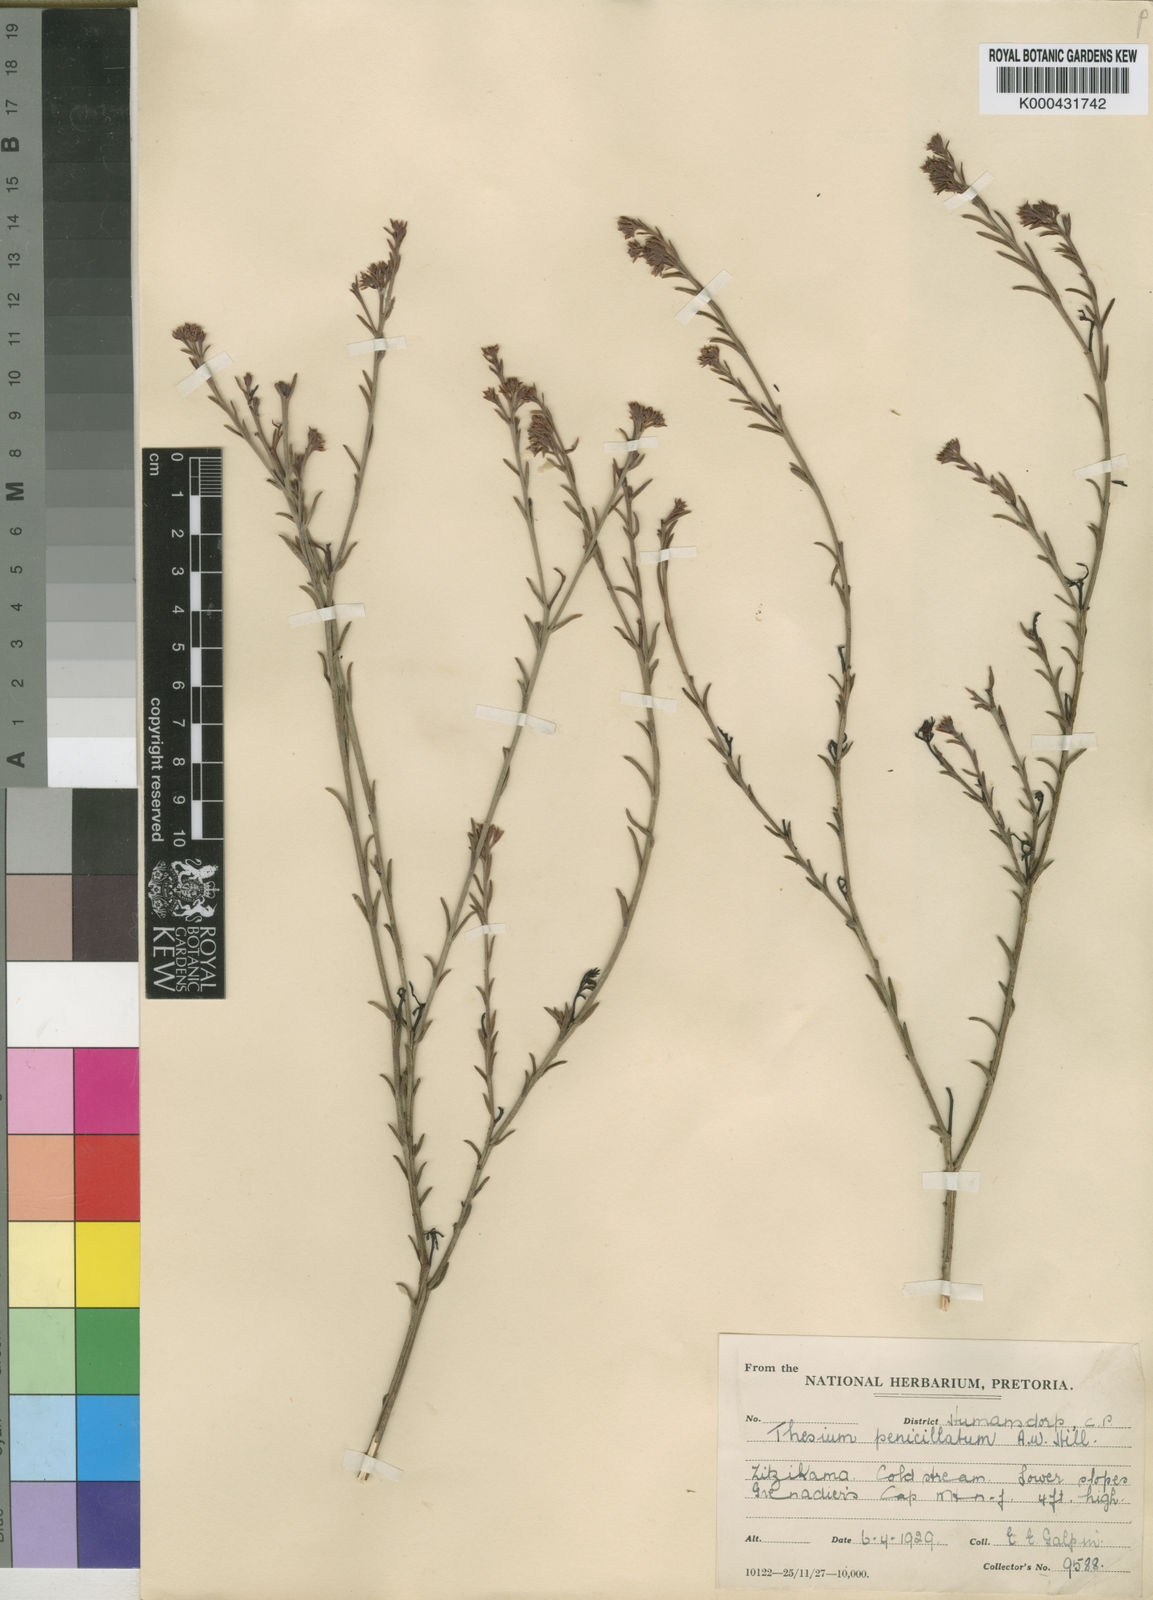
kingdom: Plantae
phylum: Tracheophyta
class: Magnoliopsida
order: Santalales
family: Thesiaceae
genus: Thesium
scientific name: Thesium penicillatum
